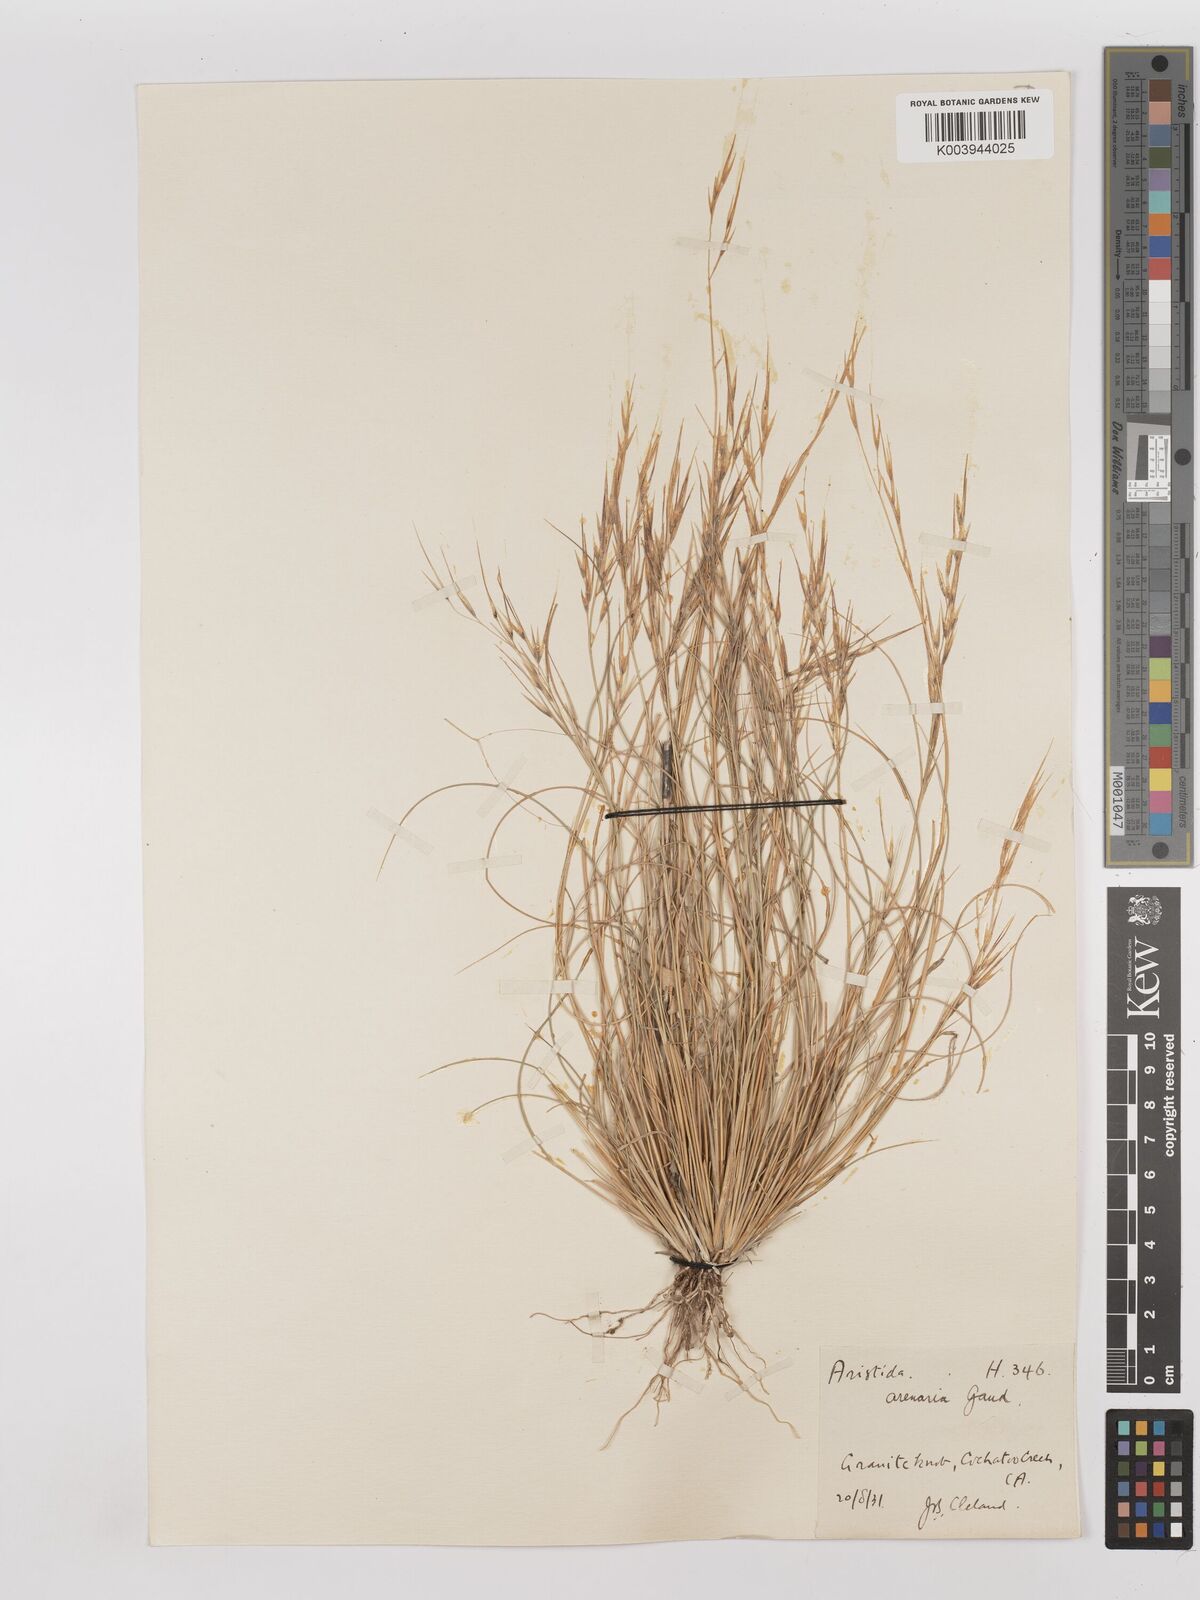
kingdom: Plantae
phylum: Tracheophyta
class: Liliopsida
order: Poales
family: Poaceae
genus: Aristida
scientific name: Aristida contorta
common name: Bunch kerosene grass
